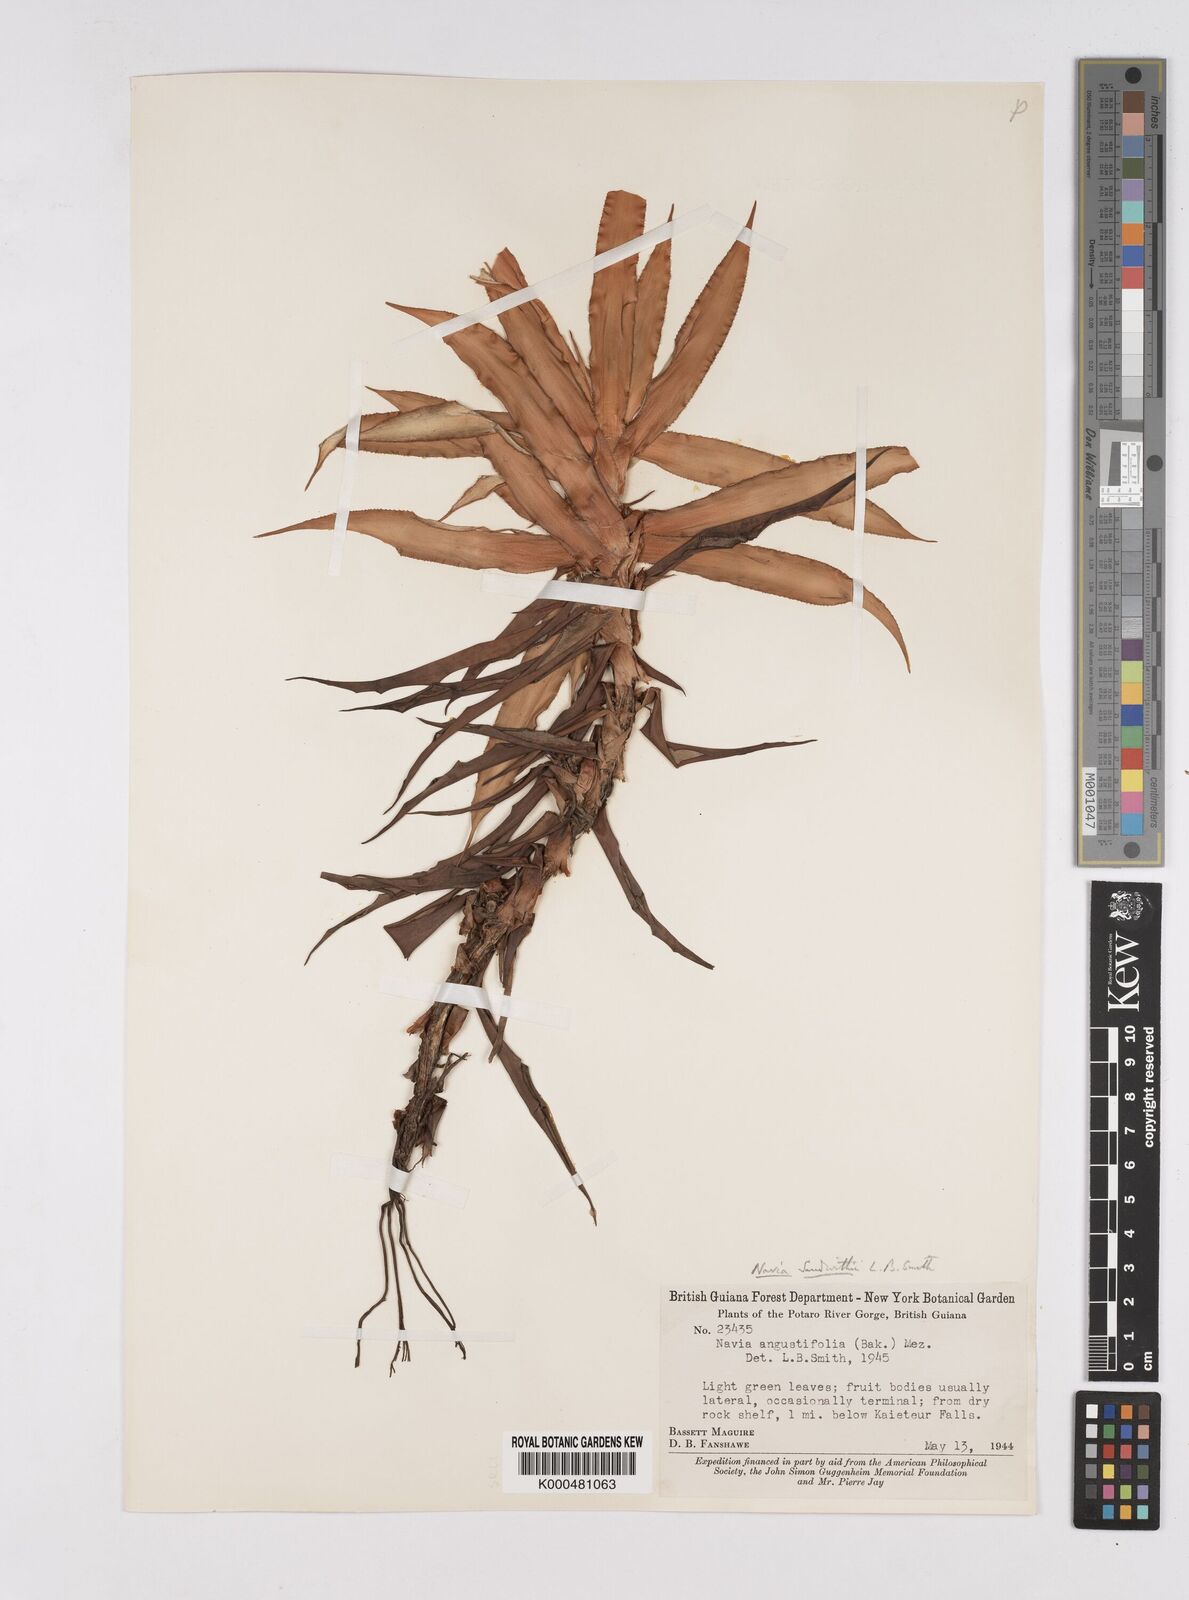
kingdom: Plantae
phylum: Tracheophyta
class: Liliopsida
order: Poales
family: Bromeliaceae
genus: Navia
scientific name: Navia sandwithii
